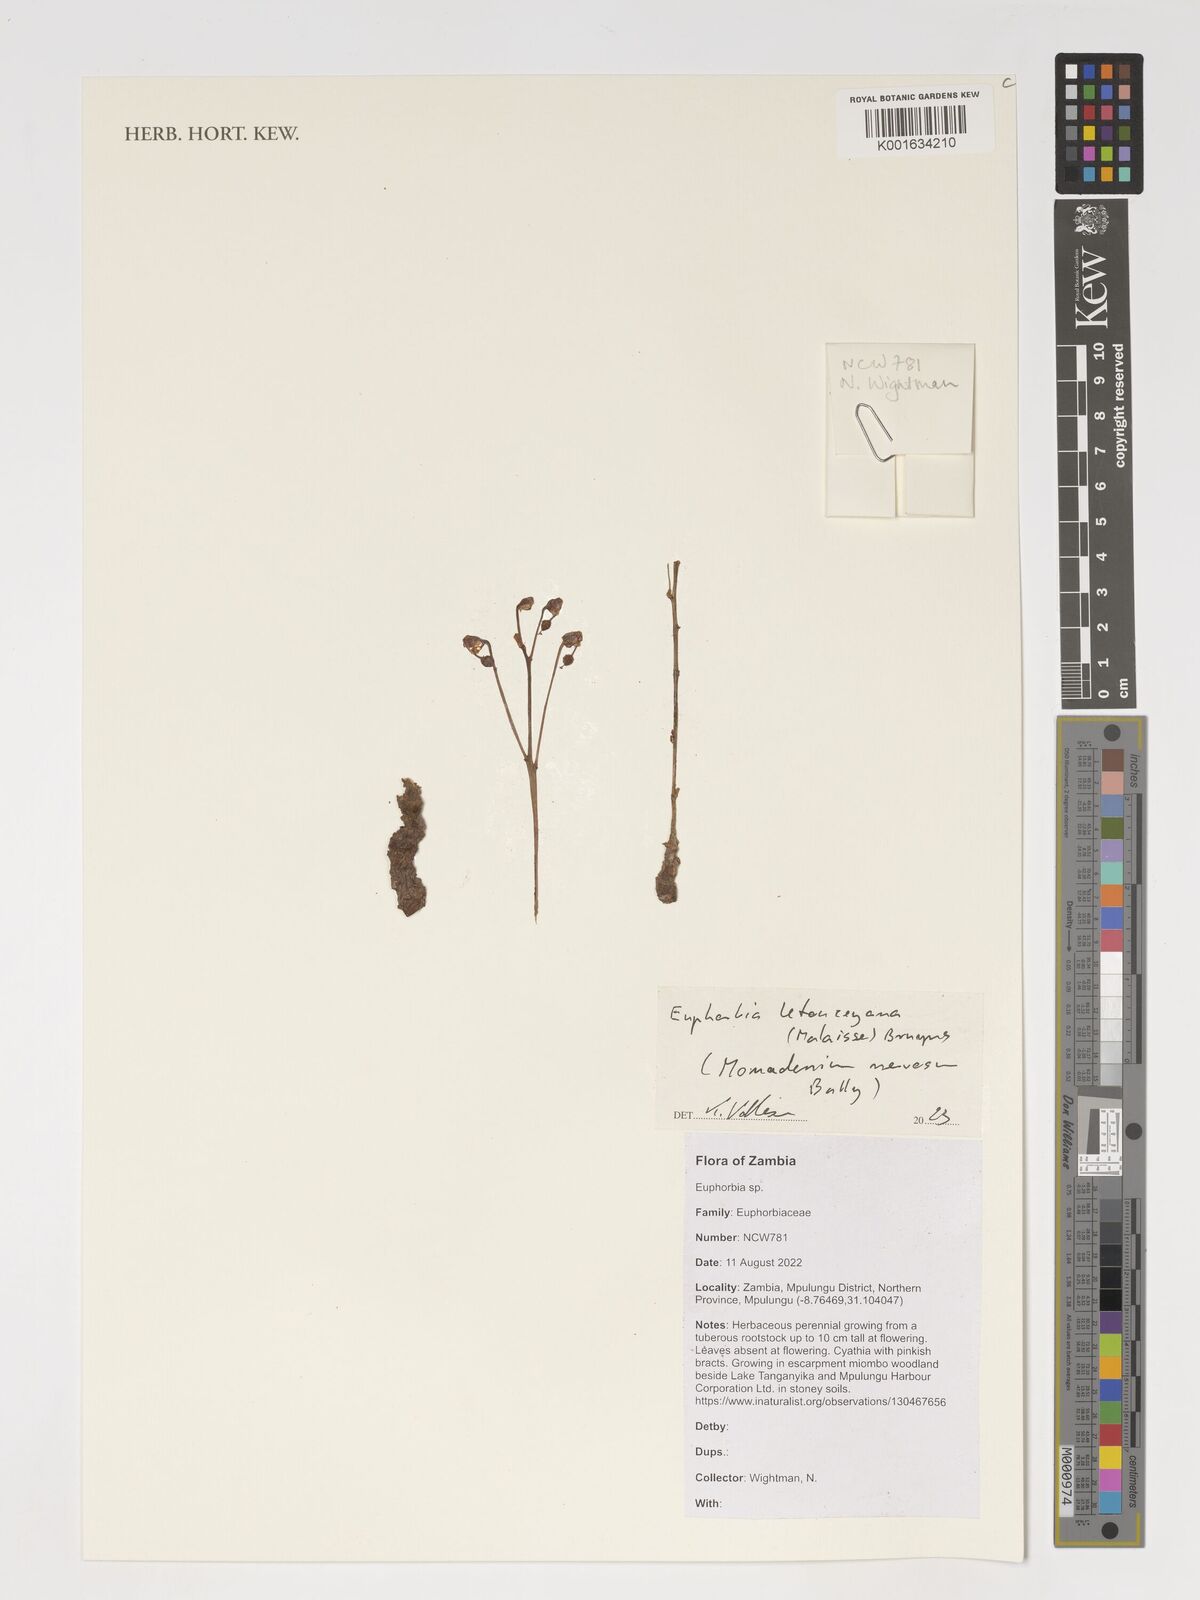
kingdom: Plantae
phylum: Tracheophyta
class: Magnoliopsida
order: Malpighiales
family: Euphorbiaceae
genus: Euphorbia
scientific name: Euphorbia letouzeyana
